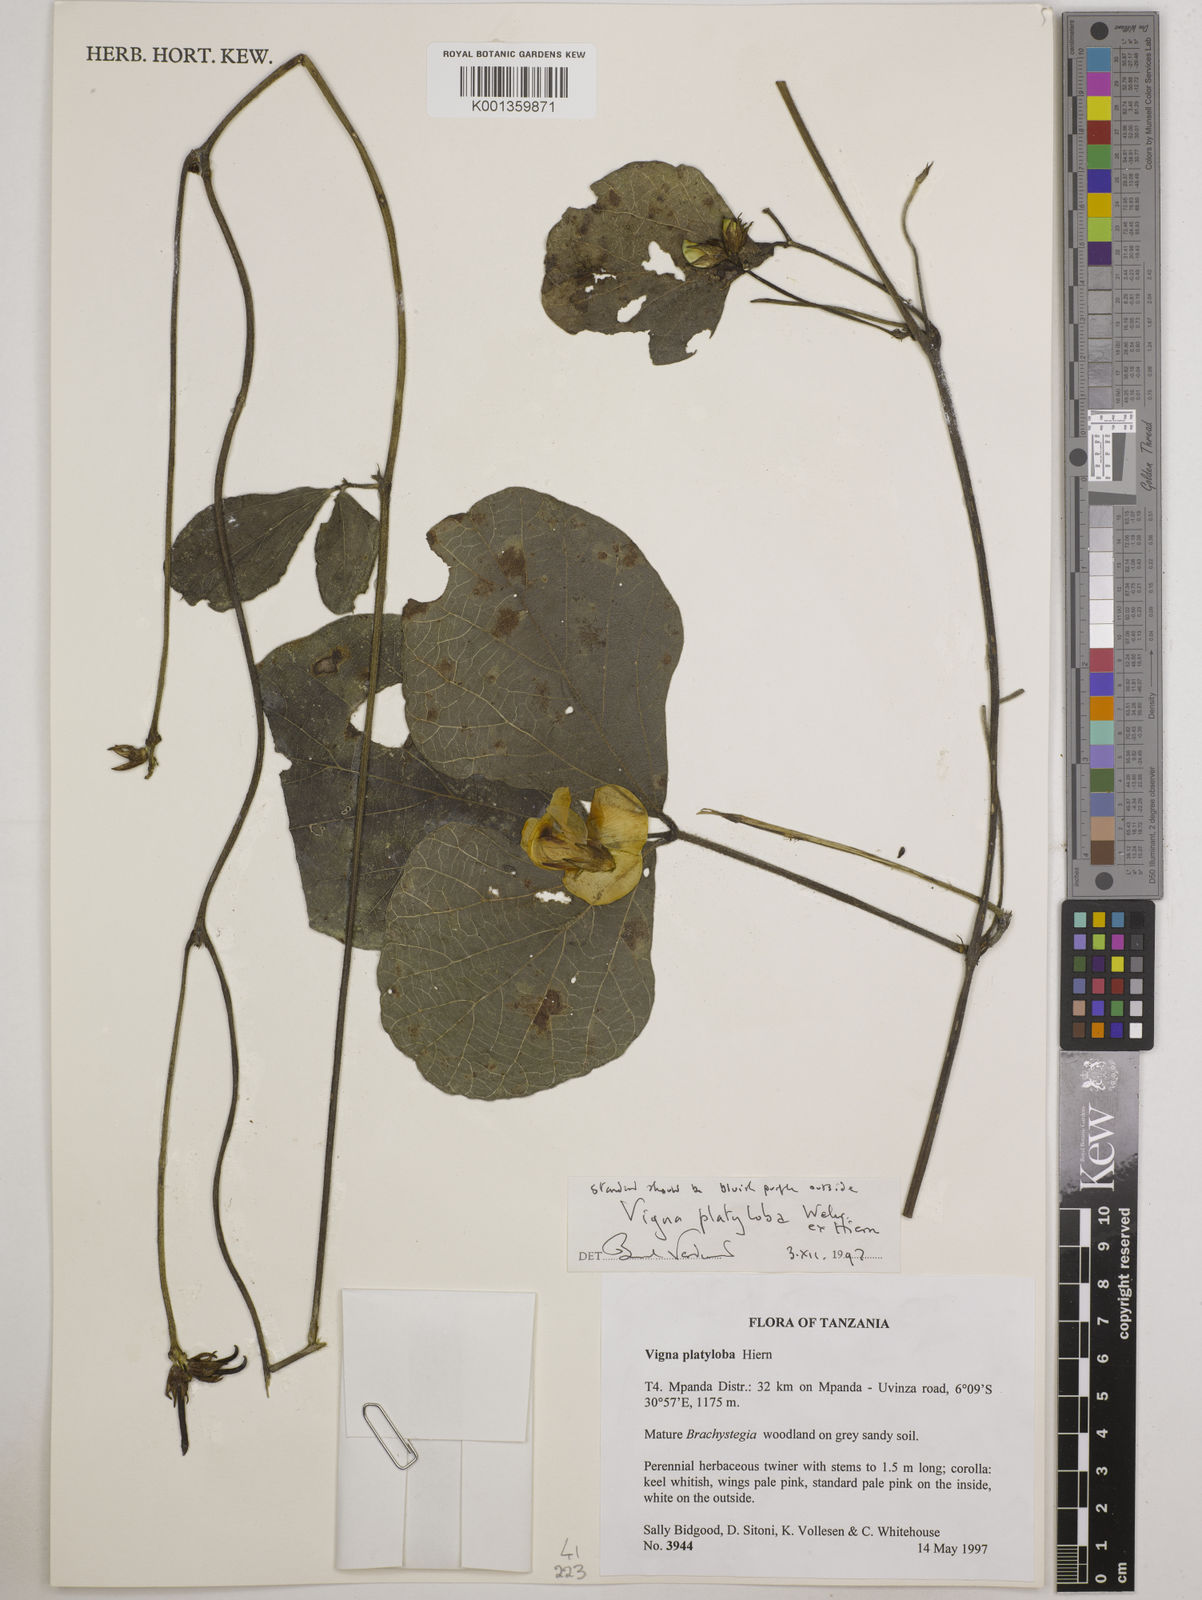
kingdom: Plantae
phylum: Tracheophyta
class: Magnoliopsida
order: Fabales
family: Fabaceae
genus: Vigna
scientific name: Vigna platyloba
